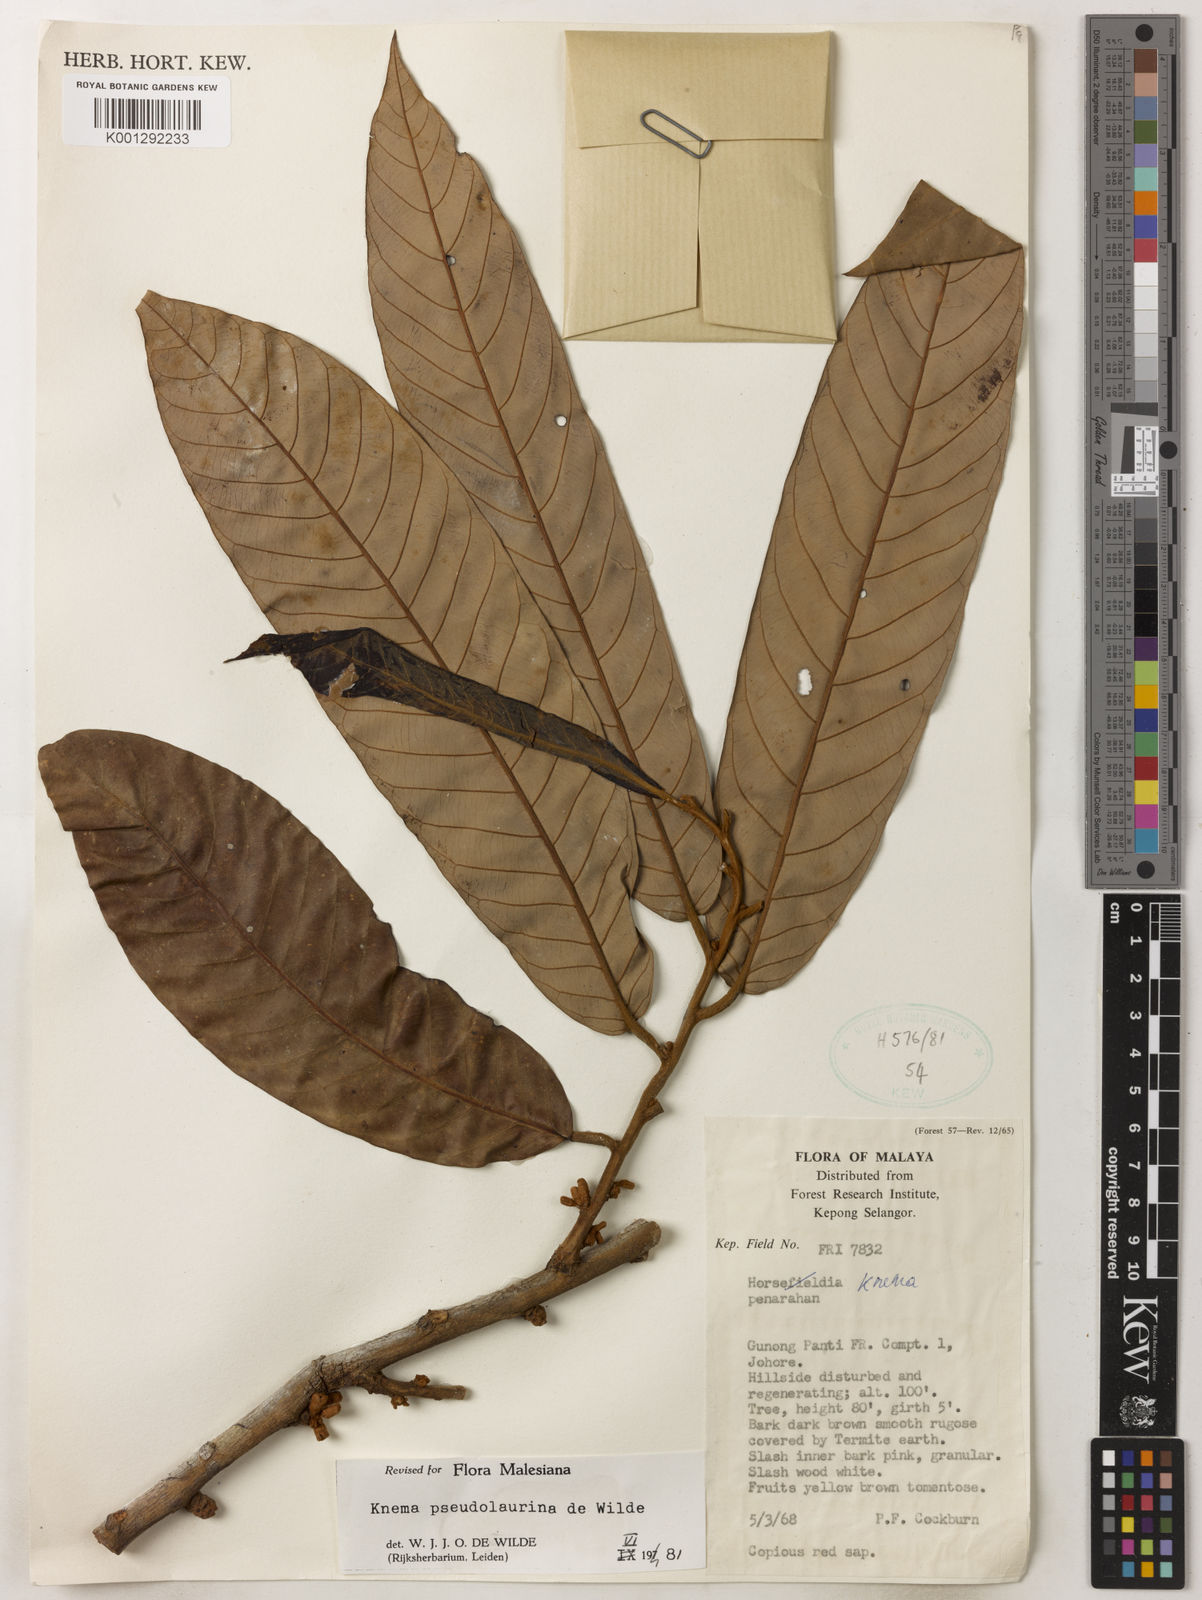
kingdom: Plantae
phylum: Tracheophyta
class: Magnoliopsida
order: Magnoliales
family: Myristicaceae
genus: Knema
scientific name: Knema pseudolaurina
